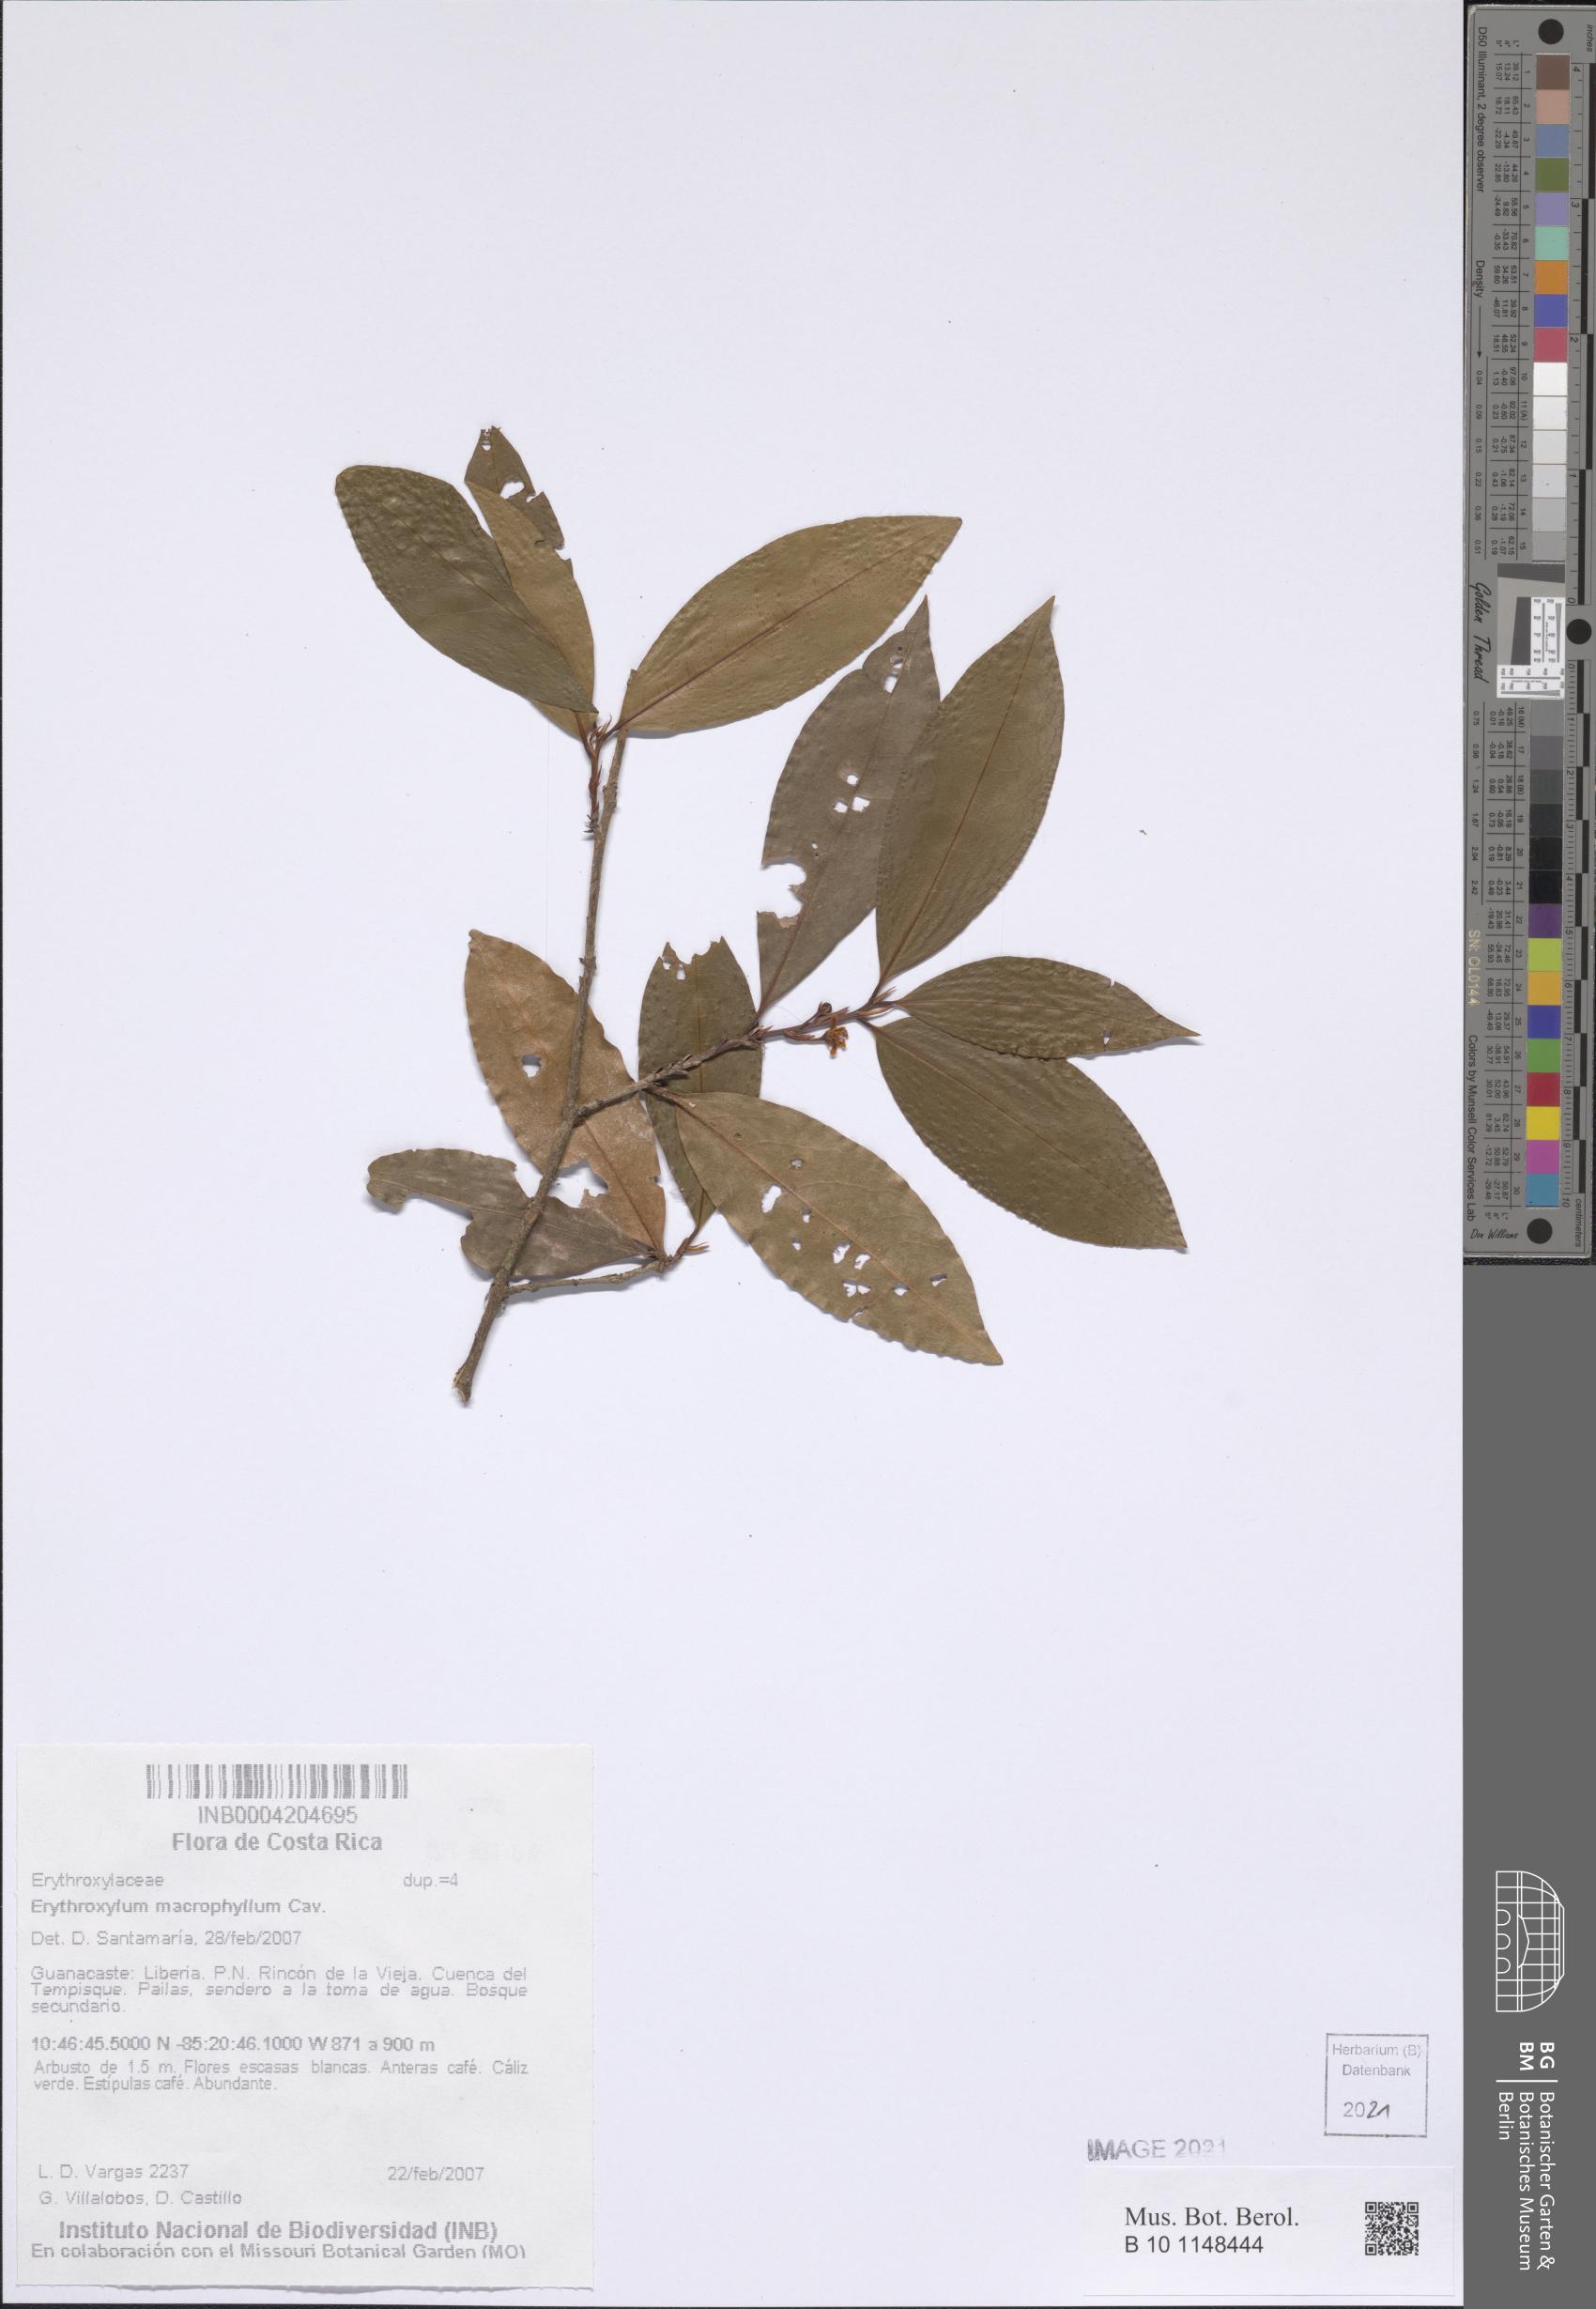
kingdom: Plantae
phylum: Tracheophyta
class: Magnoliopsida
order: Malpighiales
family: Erythroxylaceae
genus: Erythroxylum
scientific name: Erythroxylum macrophyllum
